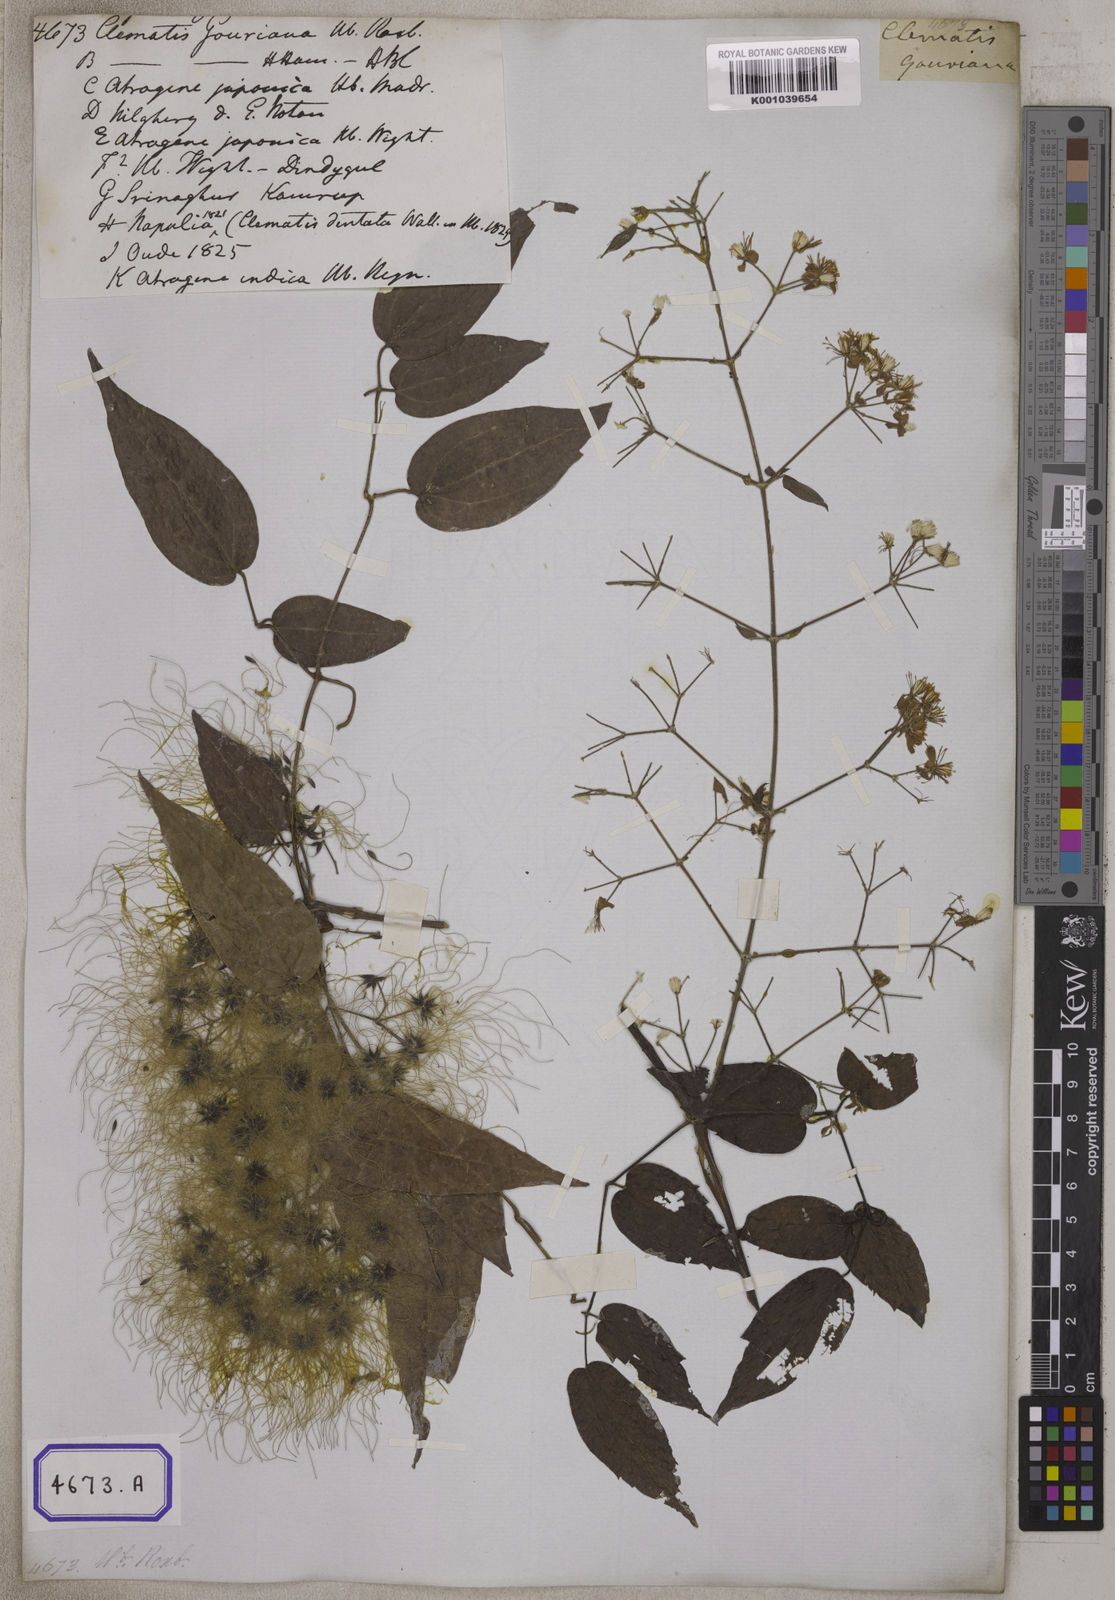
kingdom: Plantae
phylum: Tracheophyta
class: Magnoliopsida
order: Ranunculales
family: Ranunculaceae
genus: Clematis
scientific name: Clematis
